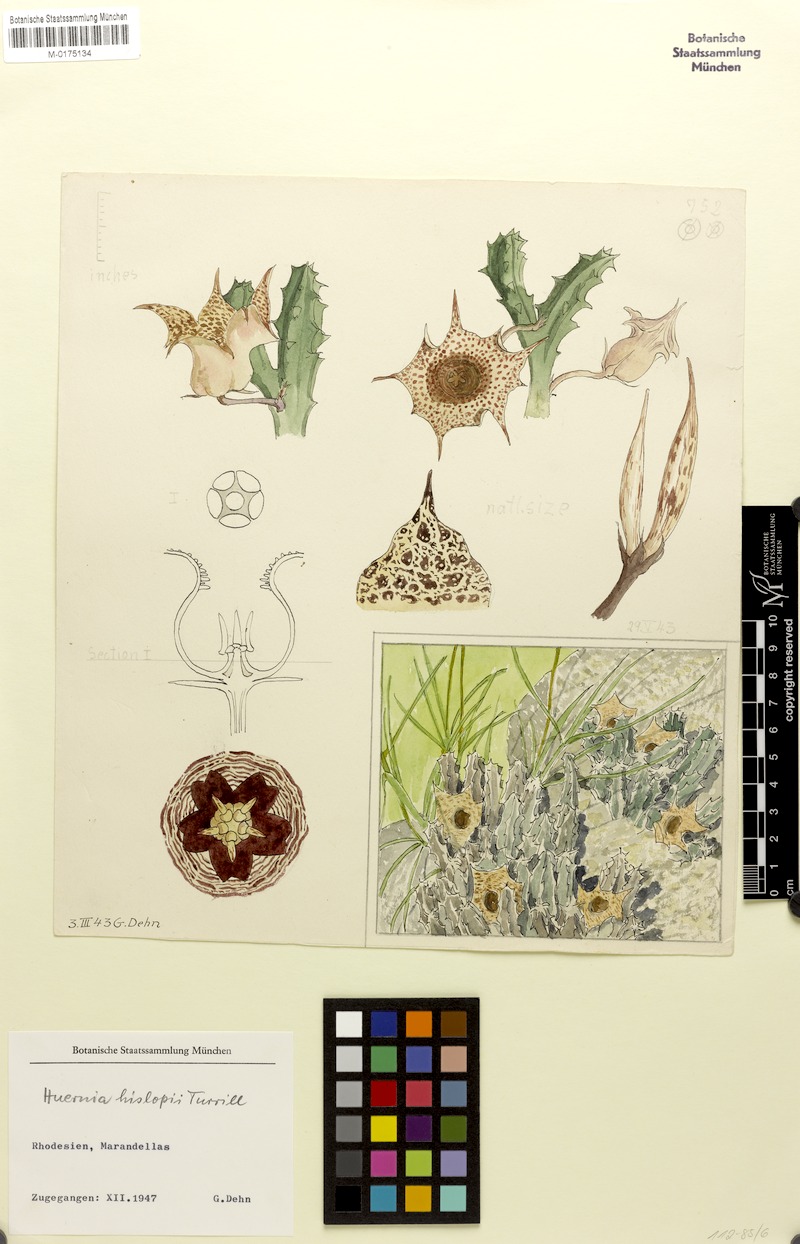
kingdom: Plantae
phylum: Tracheophyta
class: Magnoliopsida
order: Gentianales
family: Apocynaceae
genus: Ceropegia
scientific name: Ceropegia hislopii
